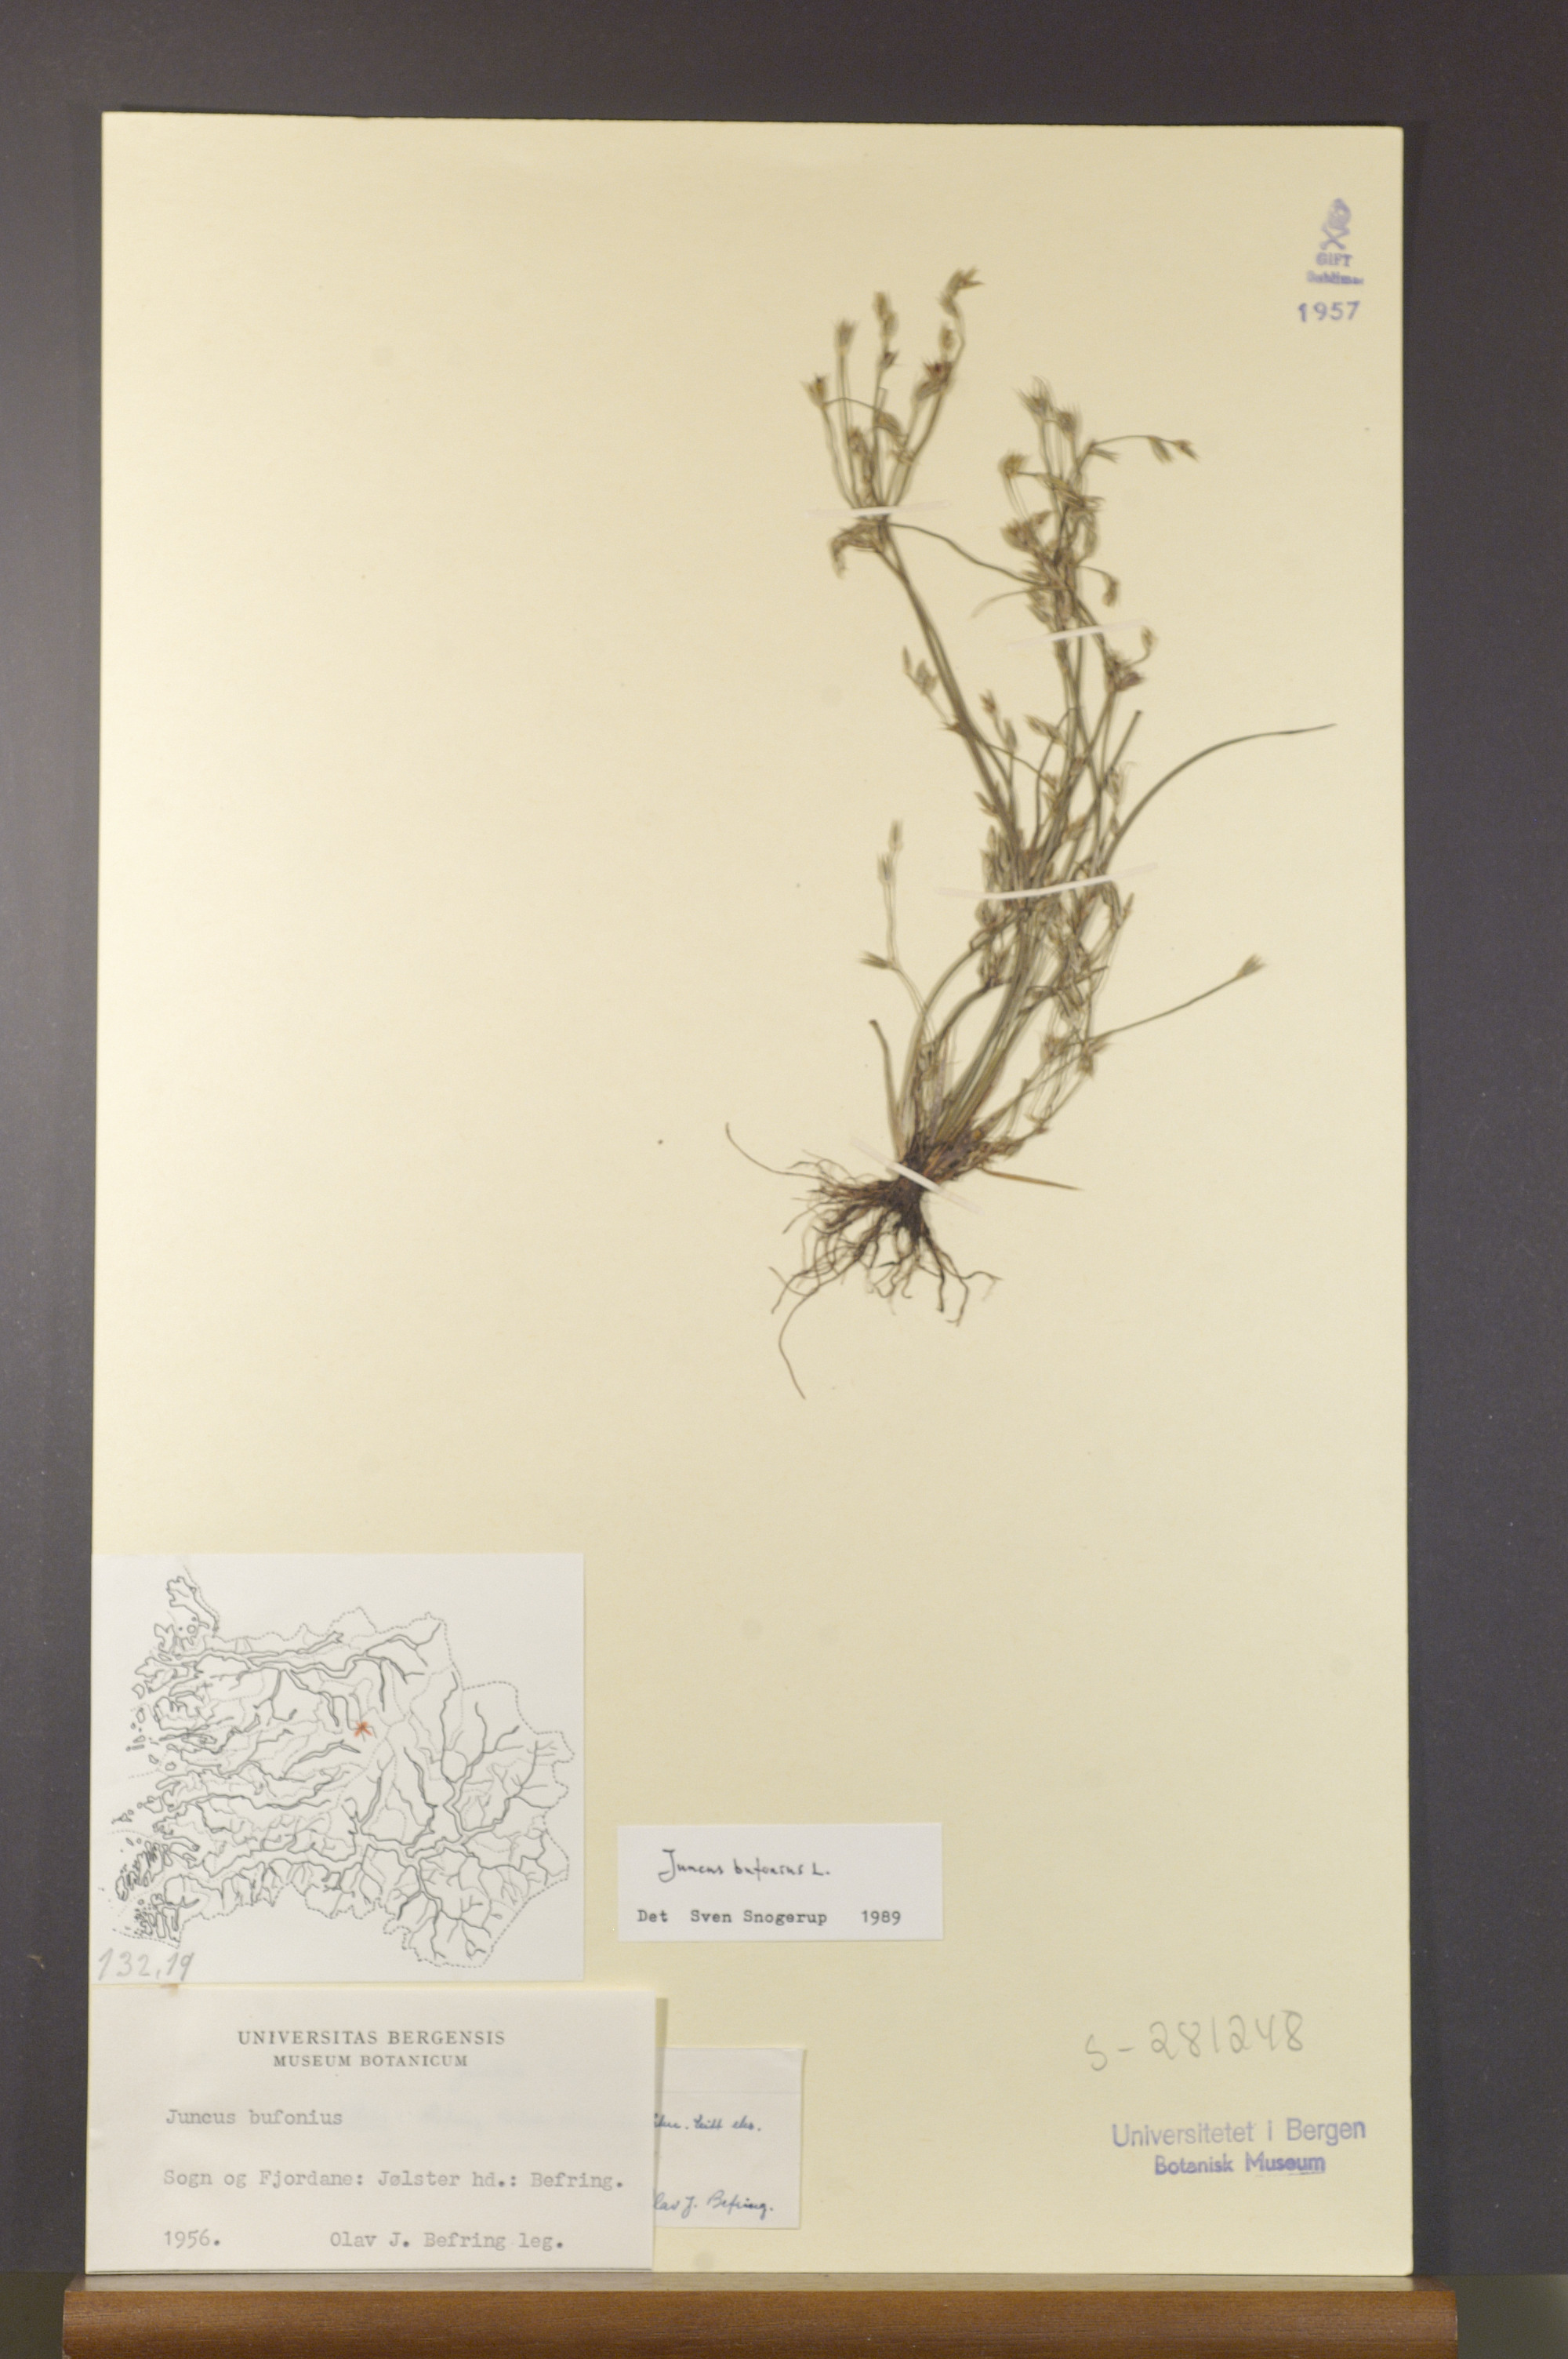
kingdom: Plantae
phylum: Tracheophyta
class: Liliopsida
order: Poales
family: Juncaceae
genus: Juncus
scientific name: Juncus bufonius
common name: Toad rush
